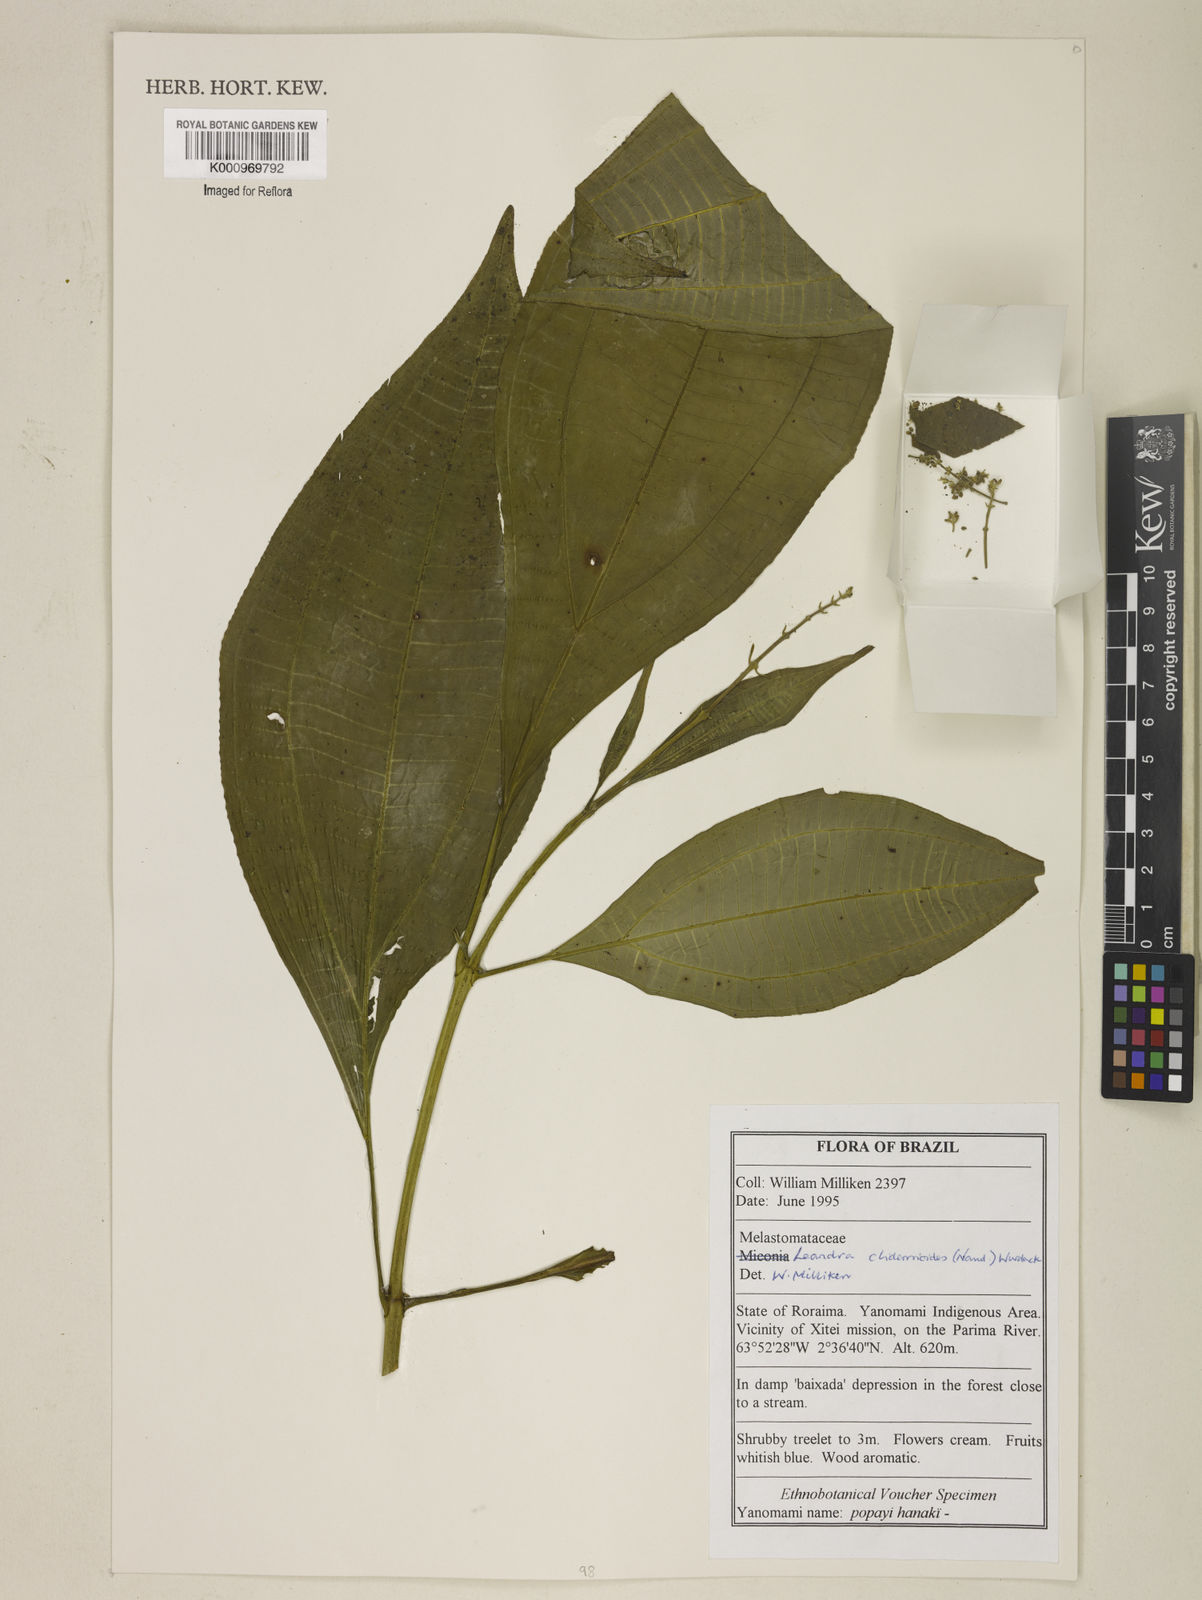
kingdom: Plantae
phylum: Tracheophyta
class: Magnoliopsida
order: Myrtales
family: Melastomataceae
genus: Miconia
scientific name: Miconia stenopetala
